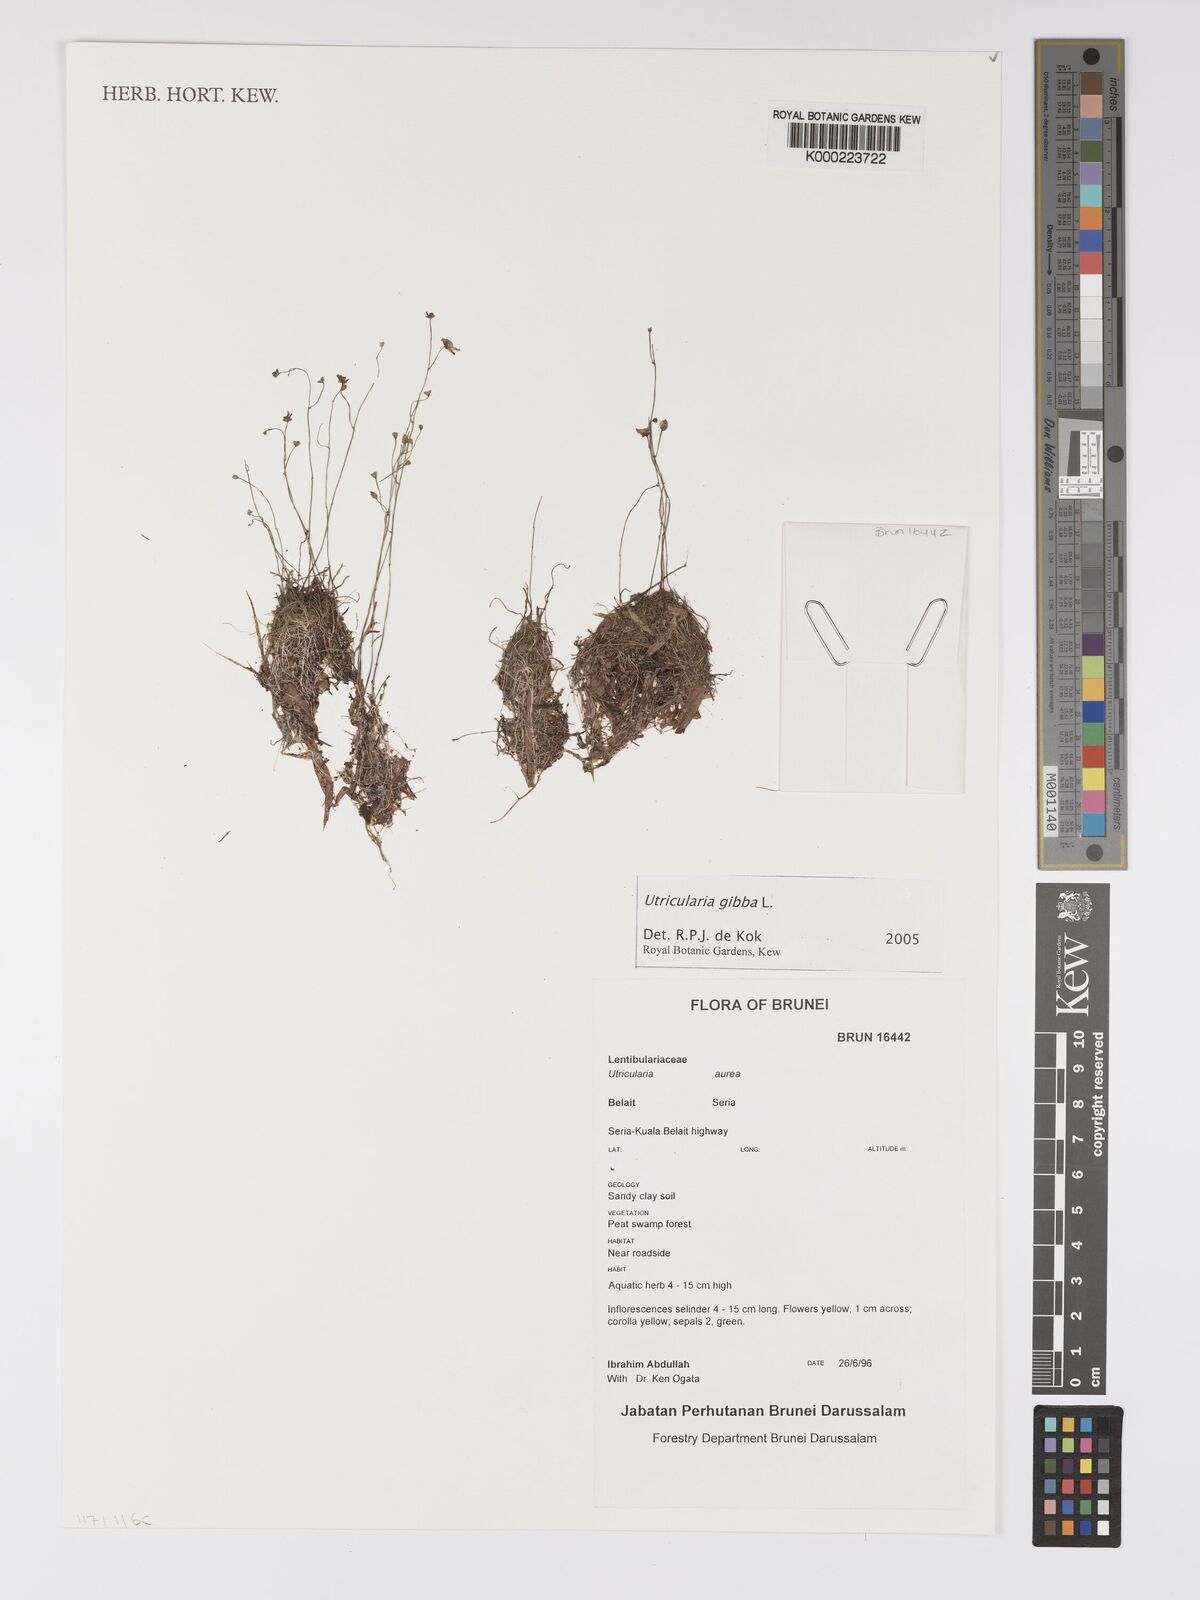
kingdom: Plantae
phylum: Tracheophyta
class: Magnoliopsida
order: Lamiales
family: Lentibulariaceae
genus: Utricularia
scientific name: Utricularia gibba
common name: Humped bladderwort
